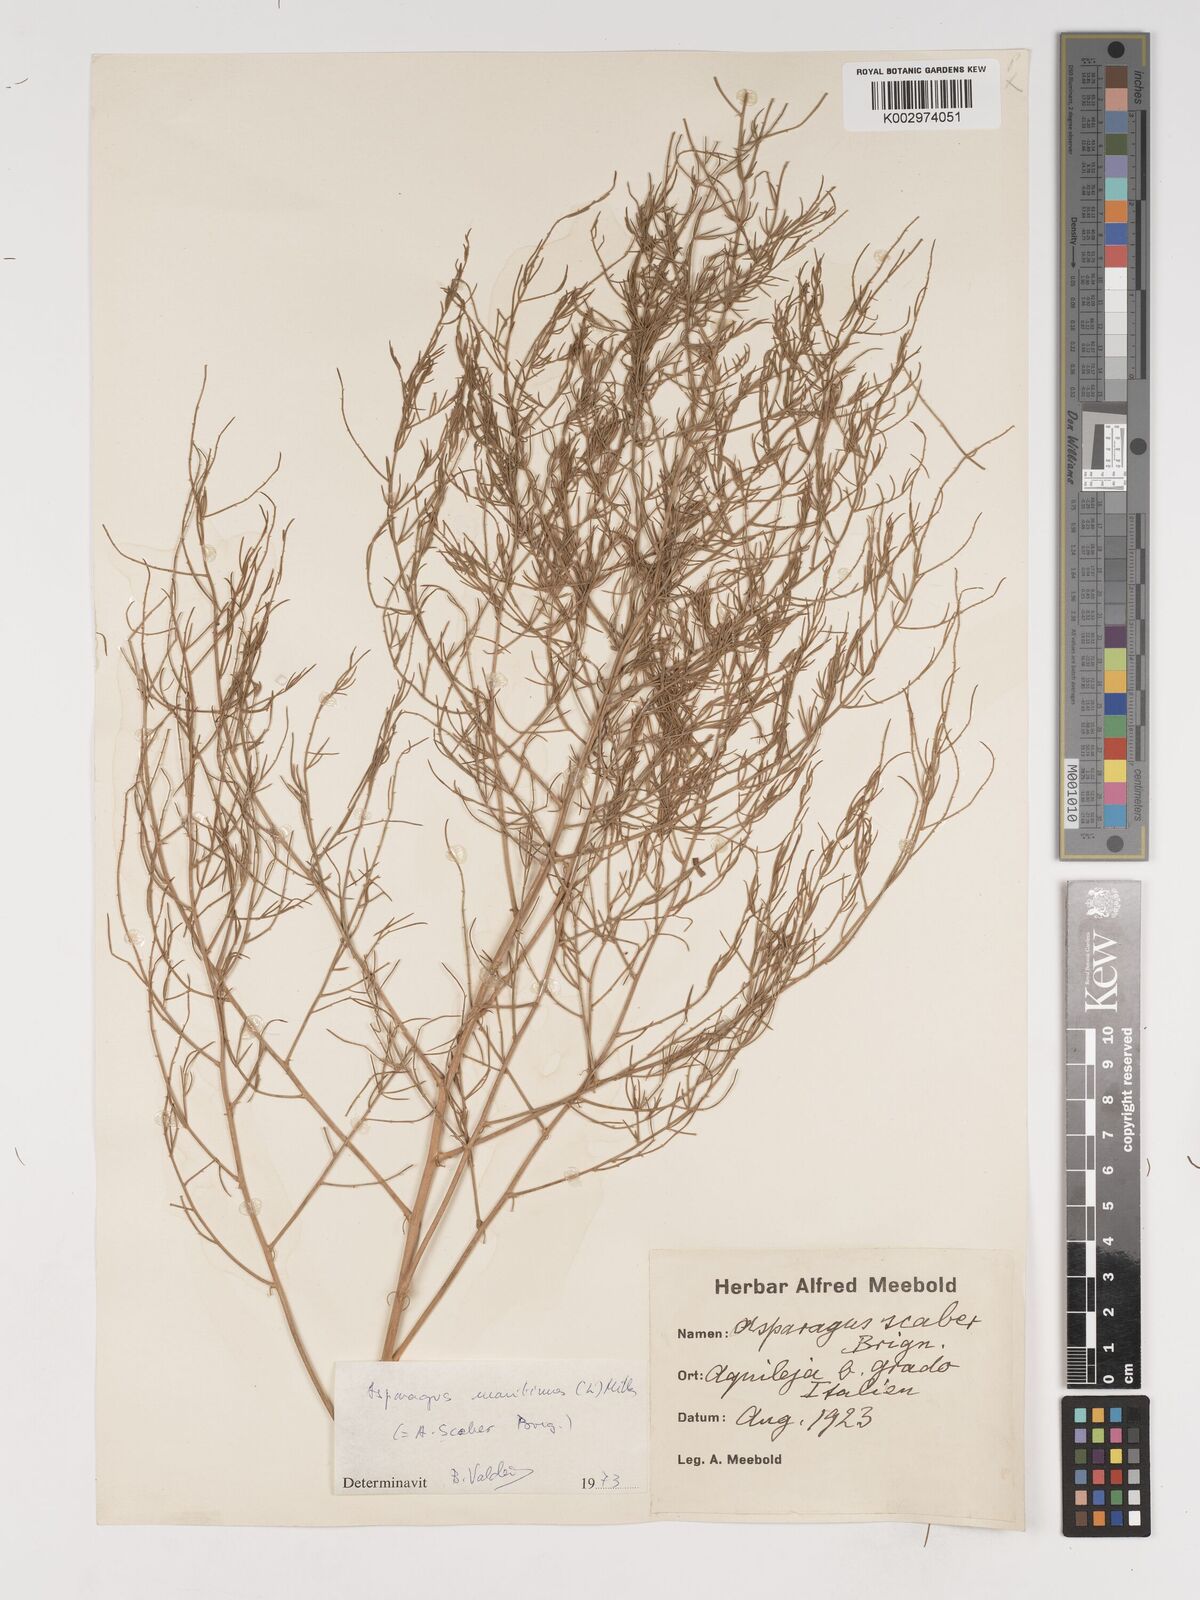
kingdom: Plantae
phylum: Tracheophyta
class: Liliopsida
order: Asparagales
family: Asparagaceae
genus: Asparagus
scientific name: Asparagus maritimus
